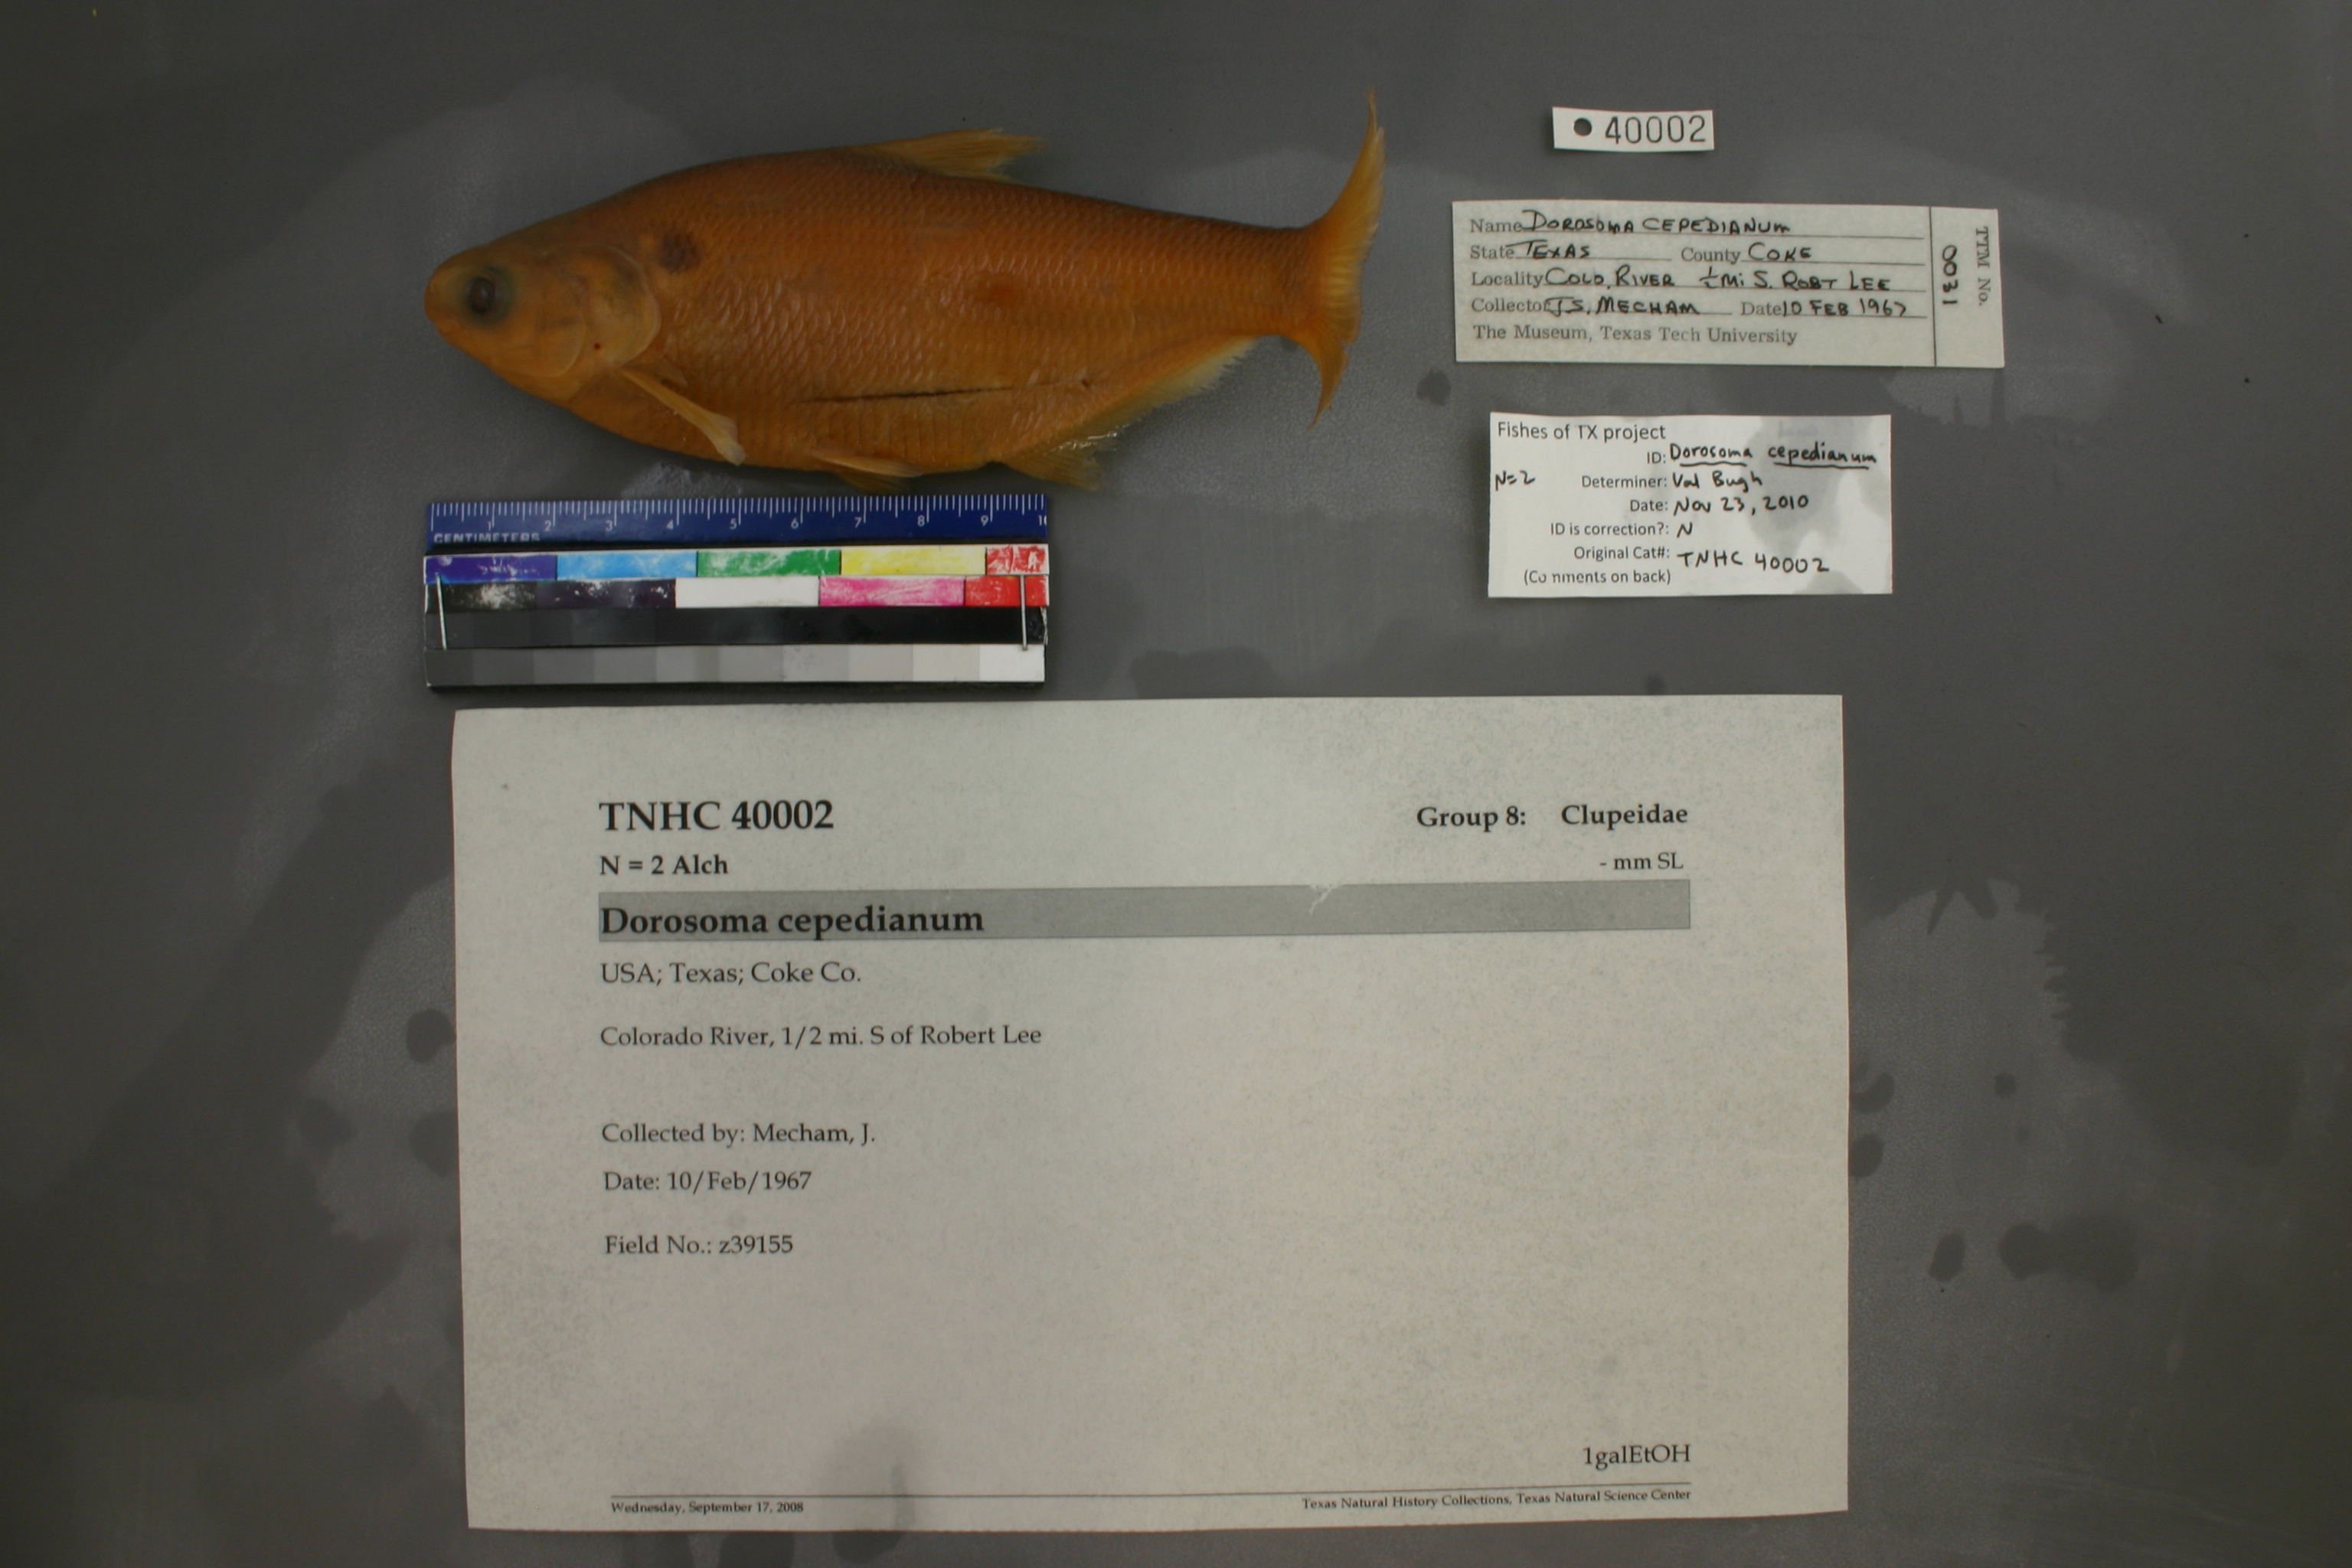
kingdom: Animalia
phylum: Chordata
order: Clupeiformes
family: Clupeidae
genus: Dorosoma
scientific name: Dorosoma cepedianum
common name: Gizzard shad
